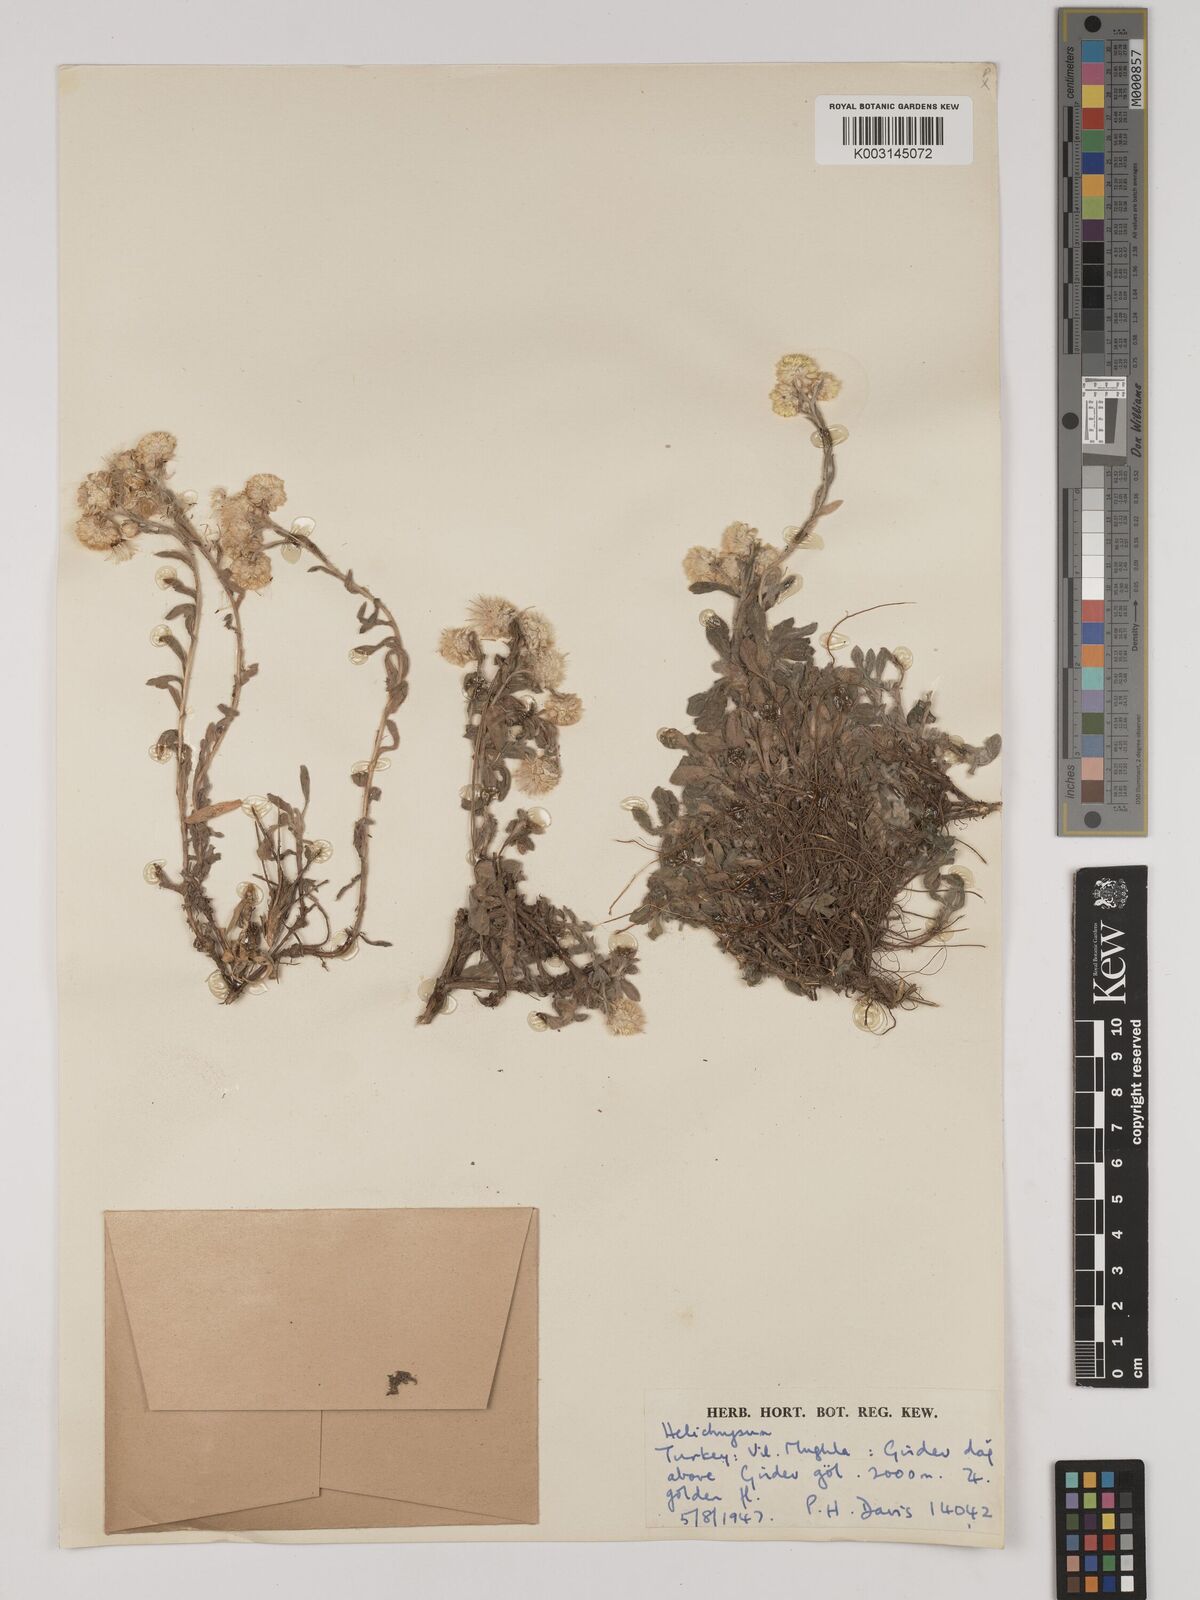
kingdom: Plantae
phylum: Tracheophyta
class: Magnoliopsida
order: Asterales
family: Asteraceae
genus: Helichrysum
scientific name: Helichrysum pallasii
